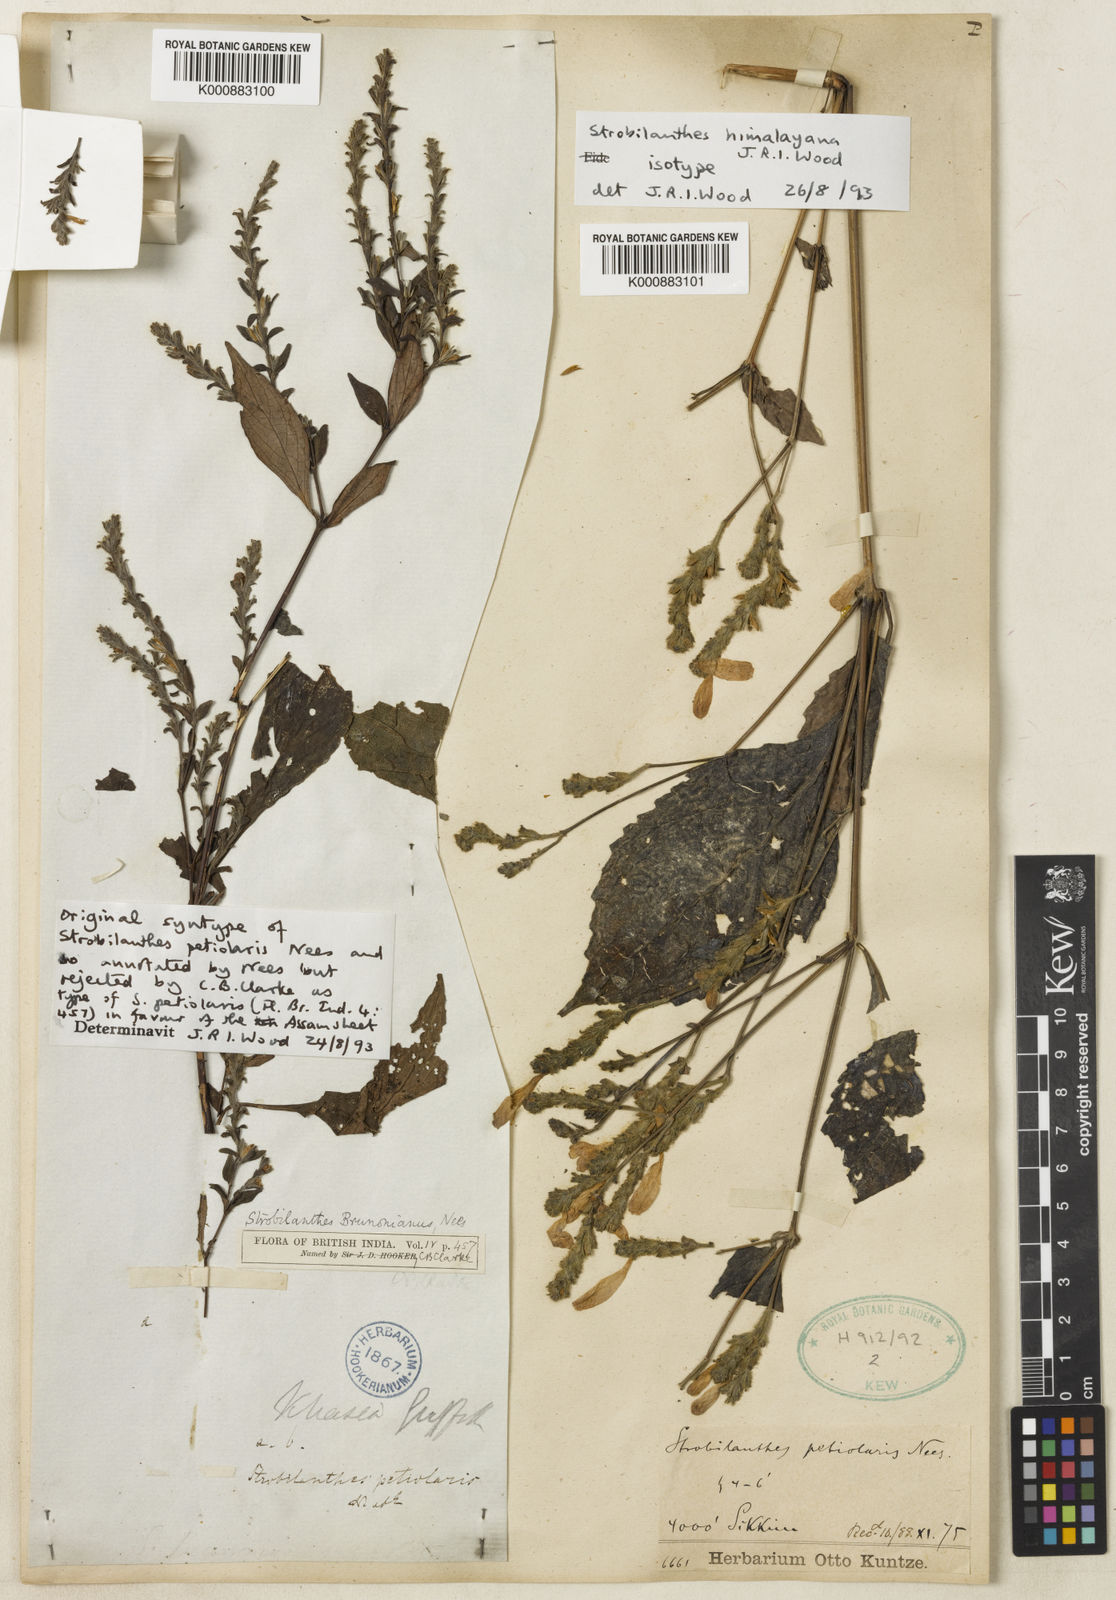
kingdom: Plantae
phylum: Tracheophyta
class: Magnoliopsida
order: Lamiales
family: Acanthaceae
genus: Strobilanthes
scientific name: Strobilanthes monadelpha
